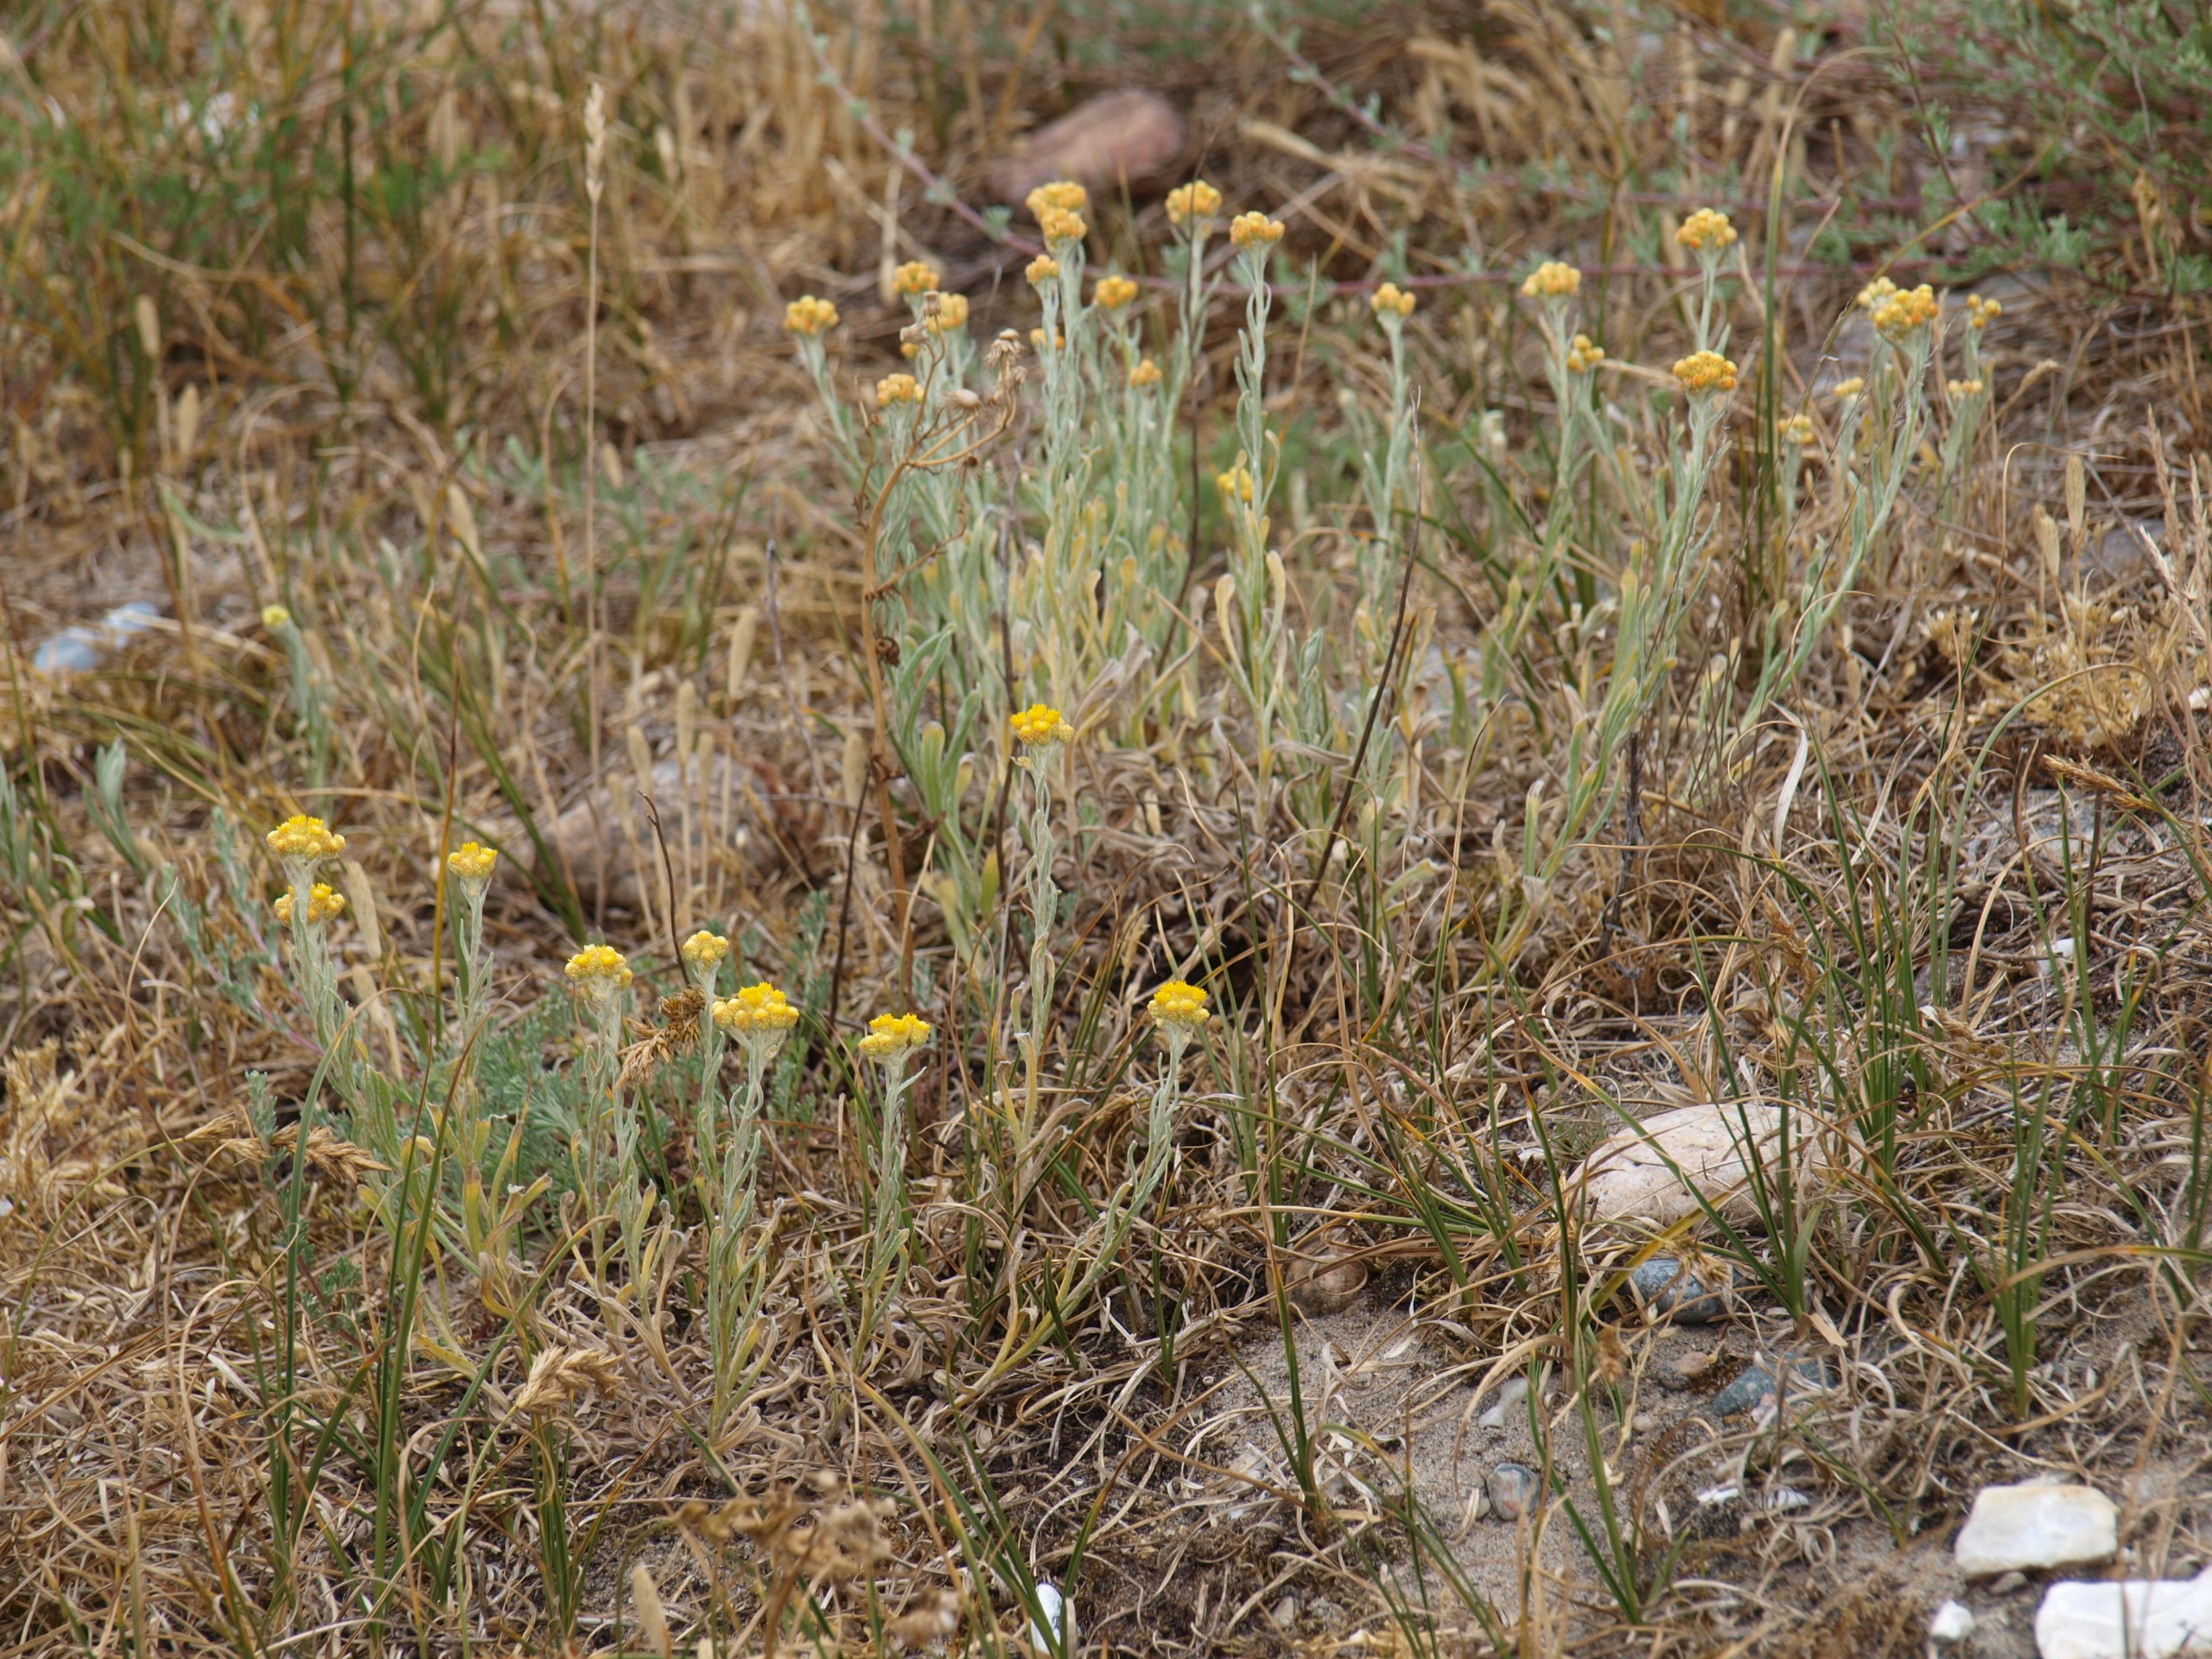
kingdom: Plantae
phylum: Tracheophyta
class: Magnoliopsida
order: Asterales
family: Asteraceae
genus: Helichrysum
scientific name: Helichrysum arenarium
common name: Gul evighedsblomst
